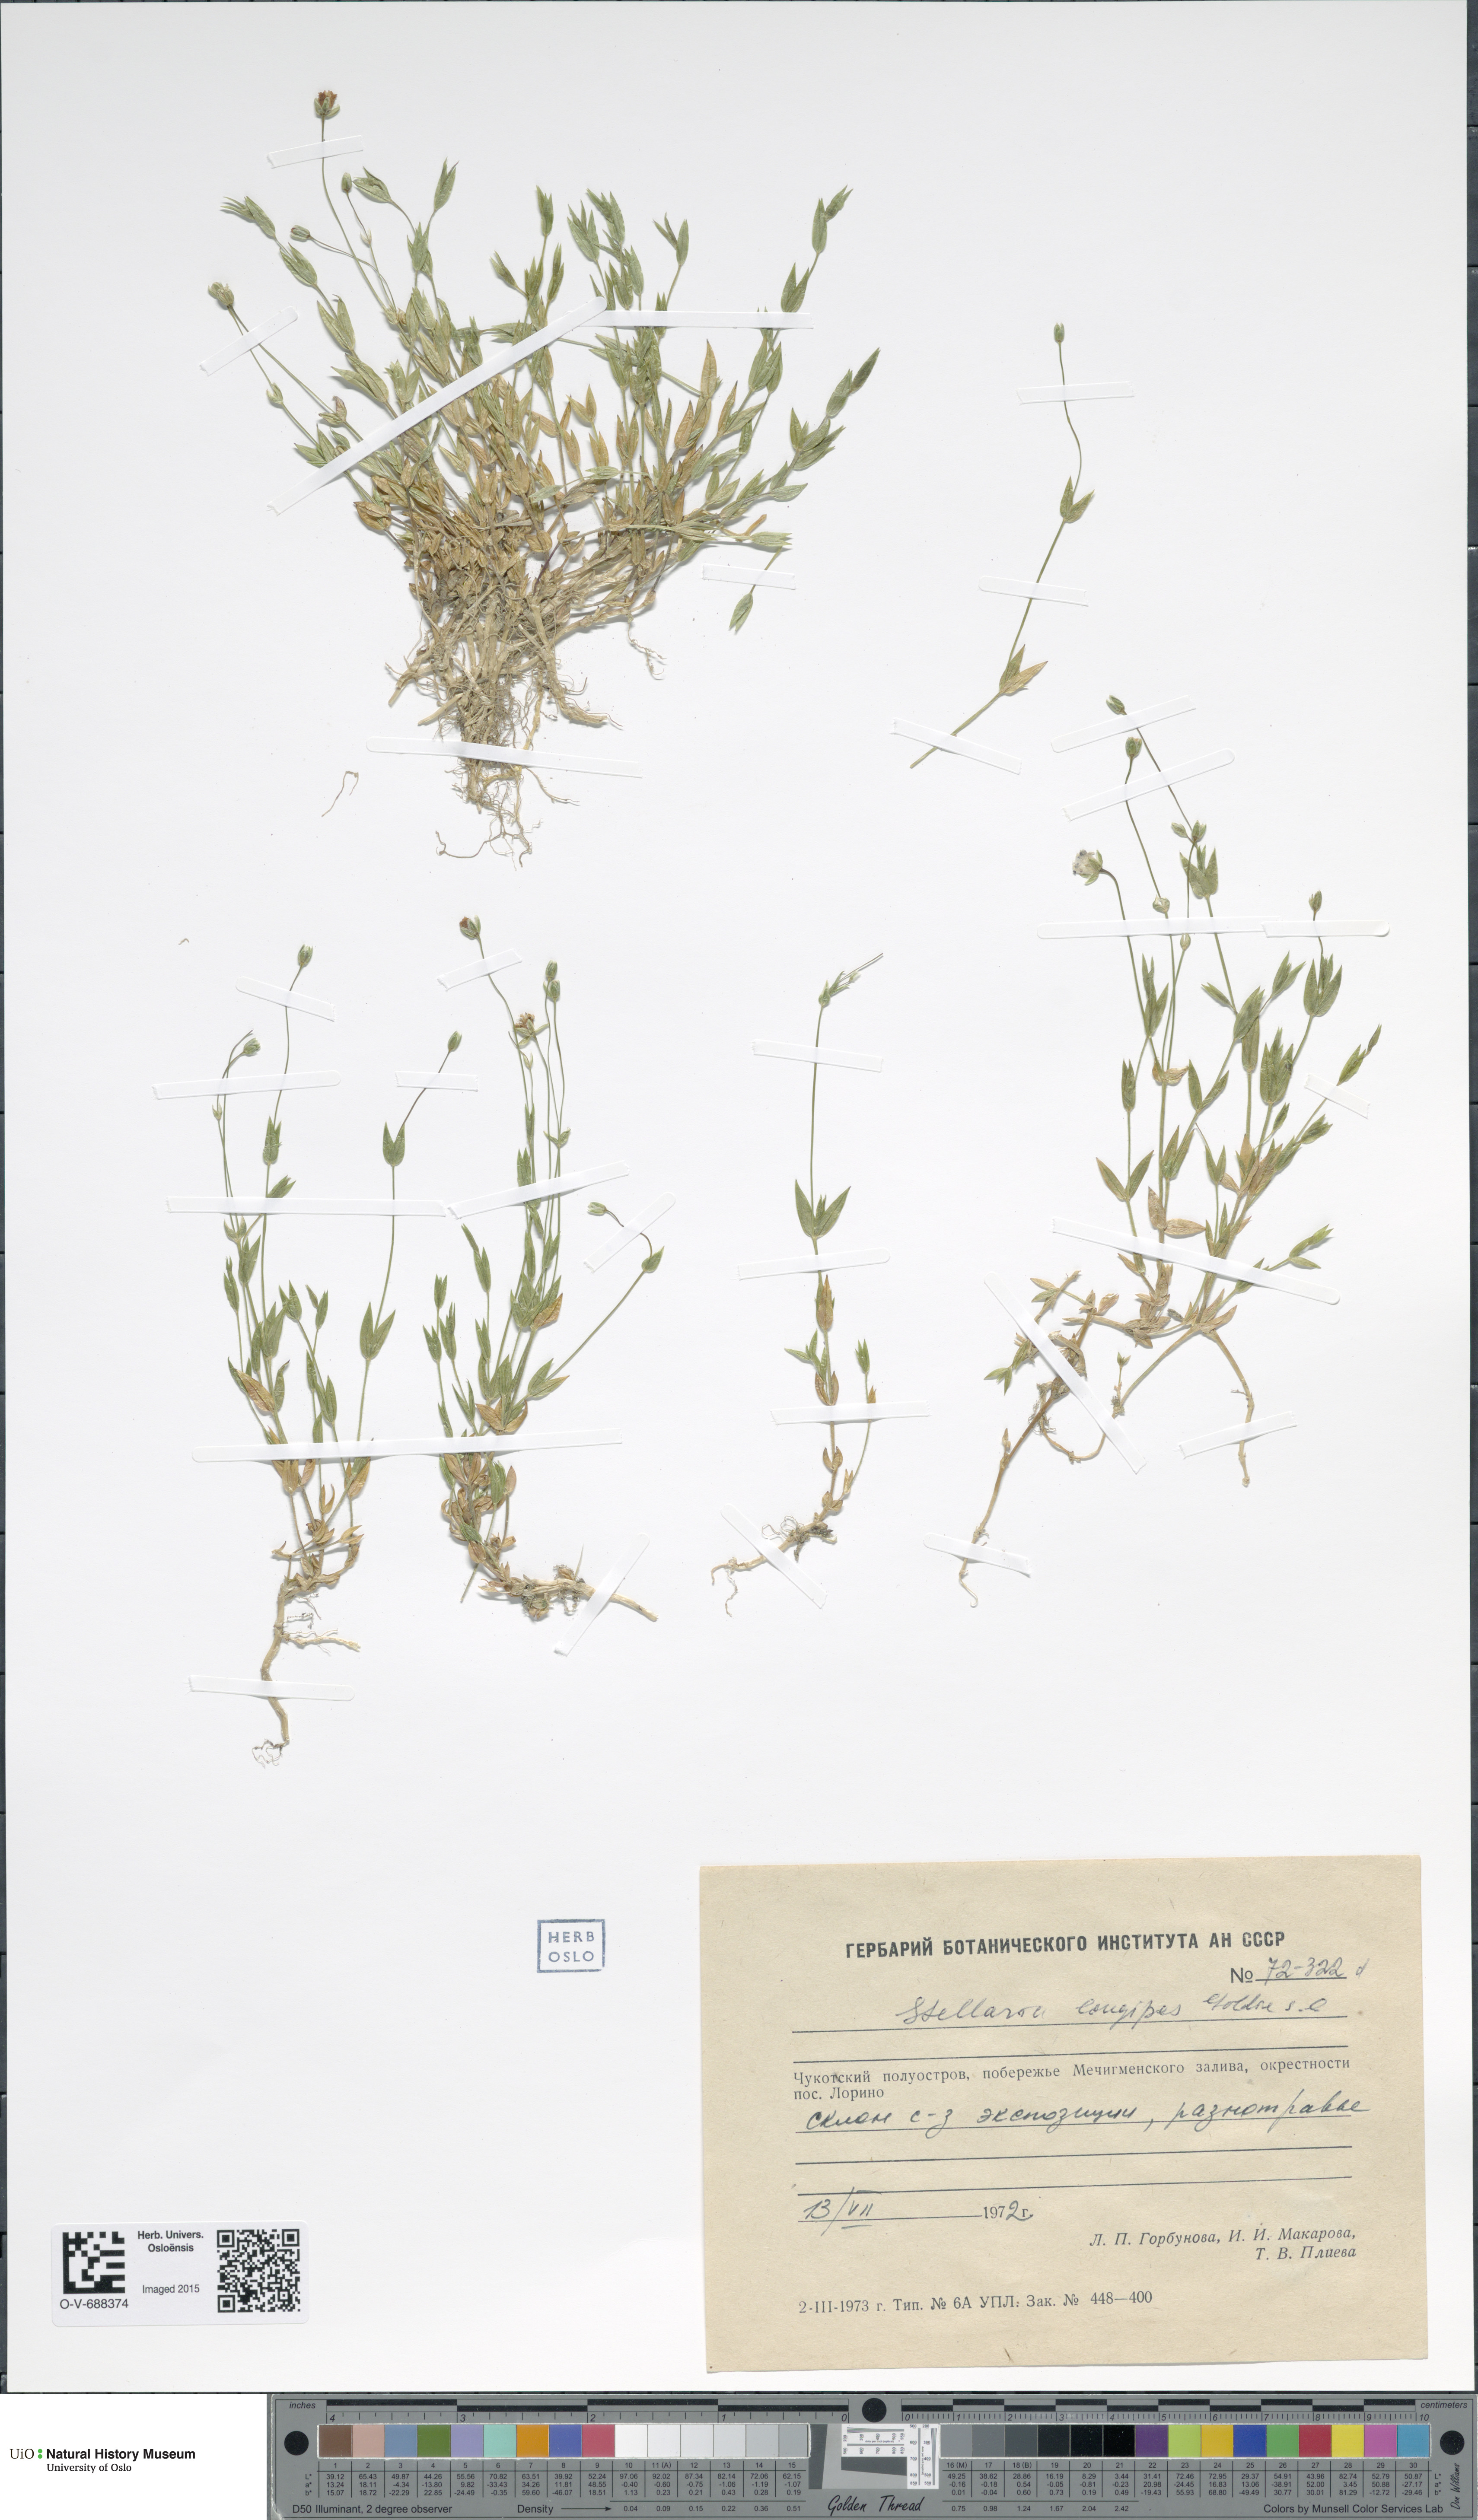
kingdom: Plantae
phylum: Tracheophyta
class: Magnoliopsida
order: Caryophyllales
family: Caryophyllaceae
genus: Stellaria
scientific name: Stellaria longipes
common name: Goldie's starwort
